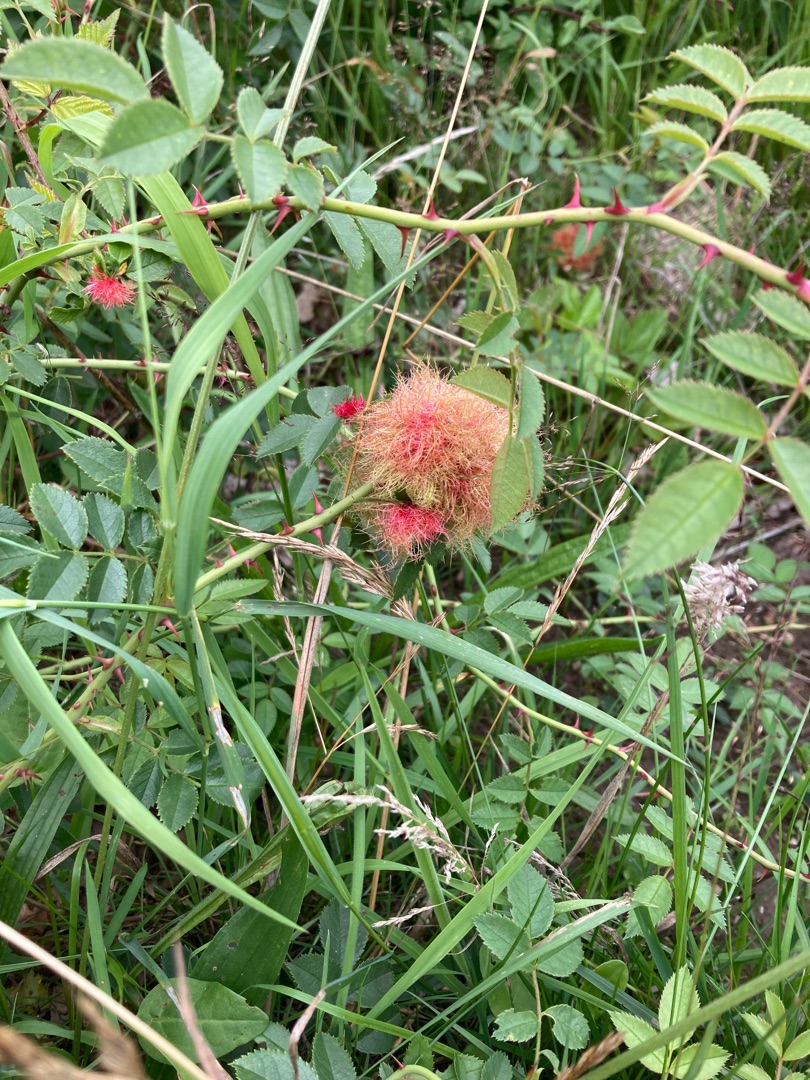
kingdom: Animalia
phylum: Arthropoda
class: Insecta
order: Hymenoptera
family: Cynipidae
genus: Diplolepis
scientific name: Diplolepis rosae
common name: Bedeguargalhveps
